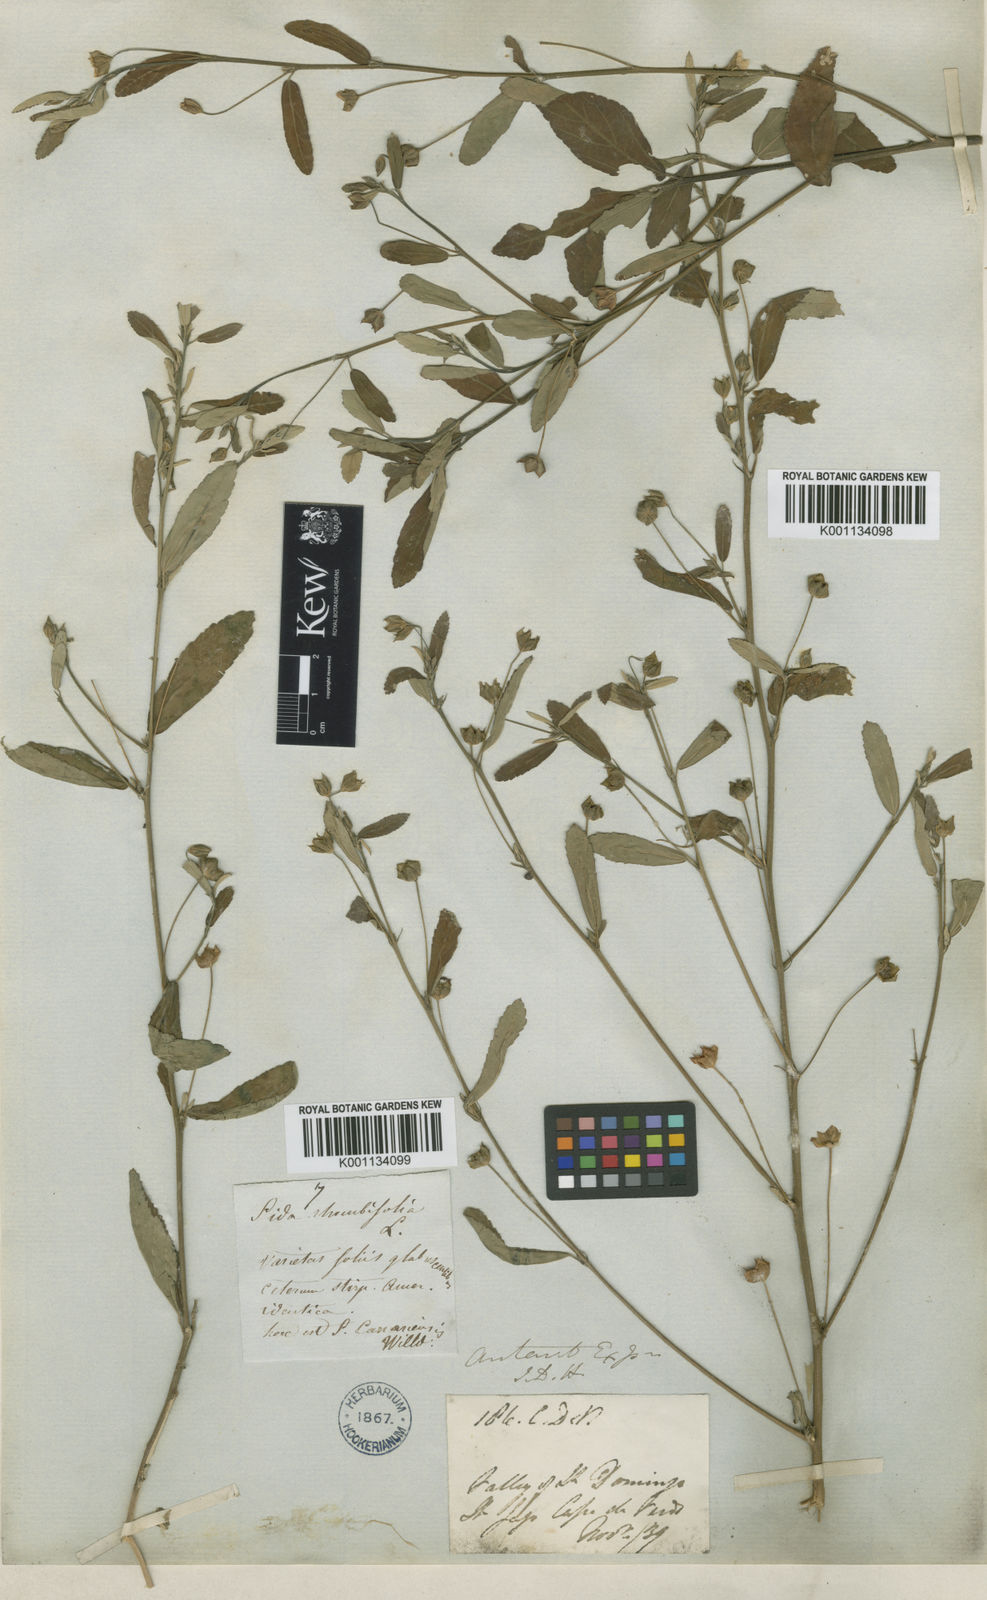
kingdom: Plantae
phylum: Tracheophyta
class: Magnoliopsida
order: Malvales
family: Malvaceae
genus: Sida
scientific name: Sida rhombifolia
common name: Queensland-hemp
